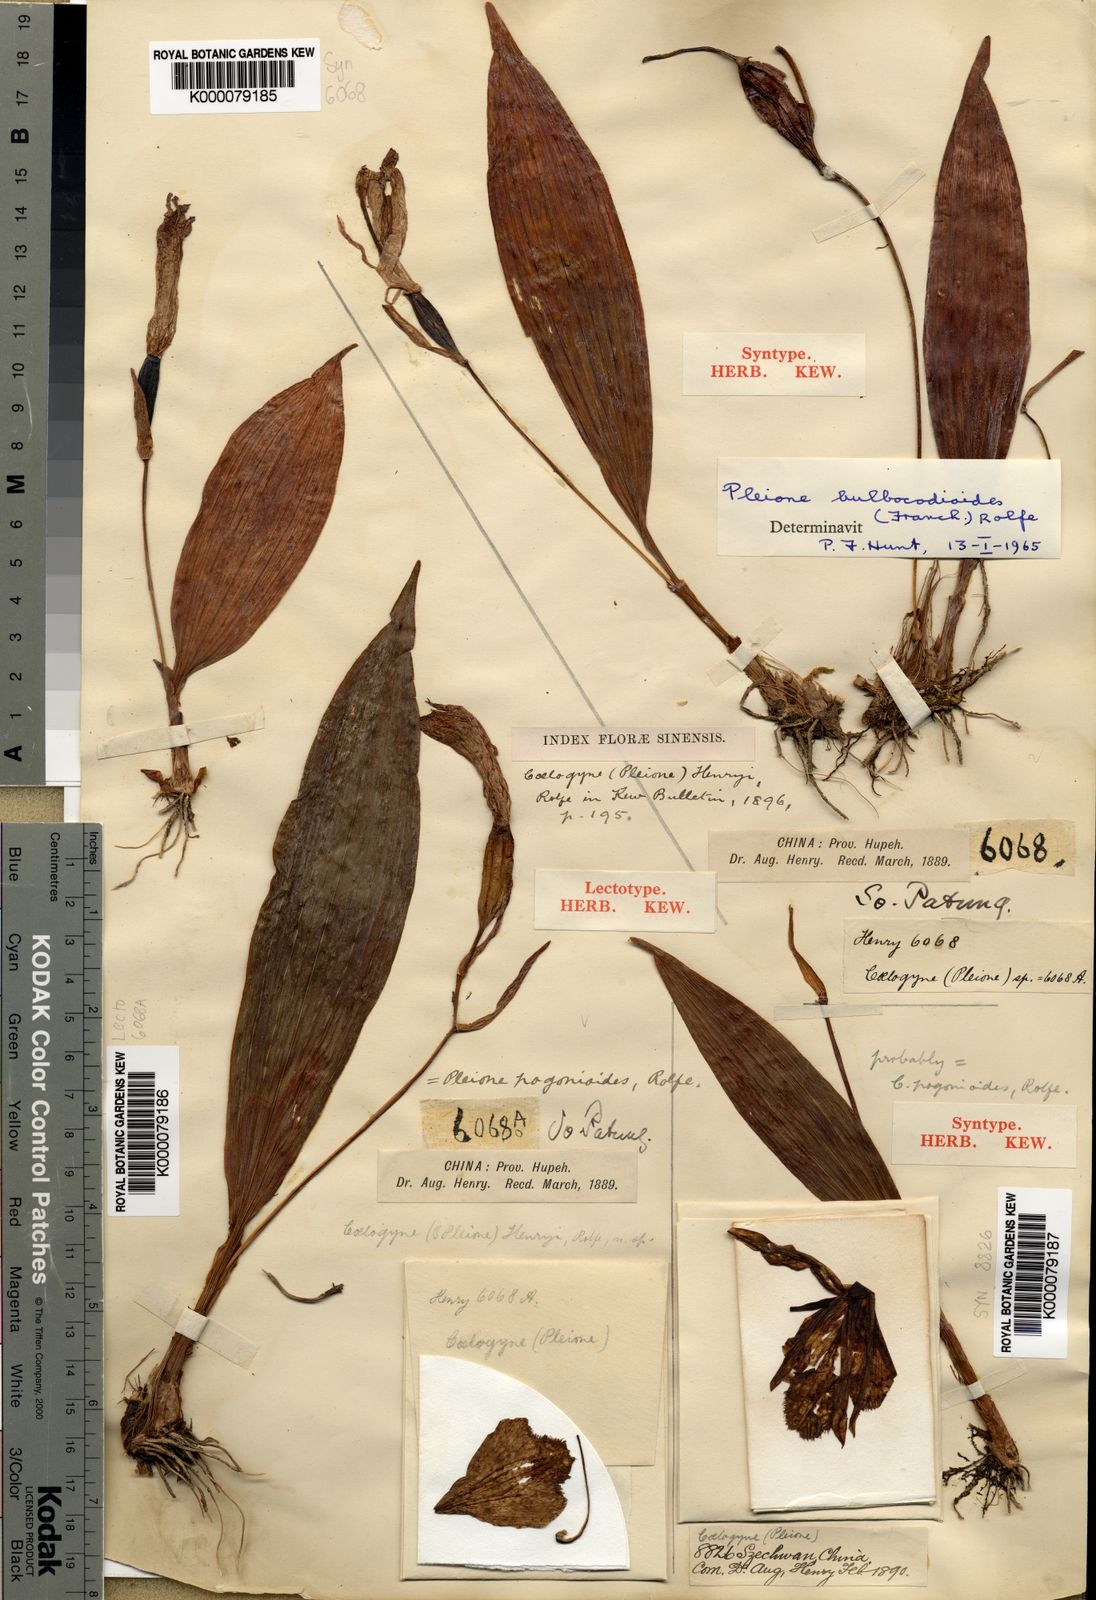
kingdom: Plantae
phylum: Tracheophyta
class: Liliopsida
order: Asparagales
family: Orchidaceae
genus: Pleione
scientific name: Pleione pleionoides
